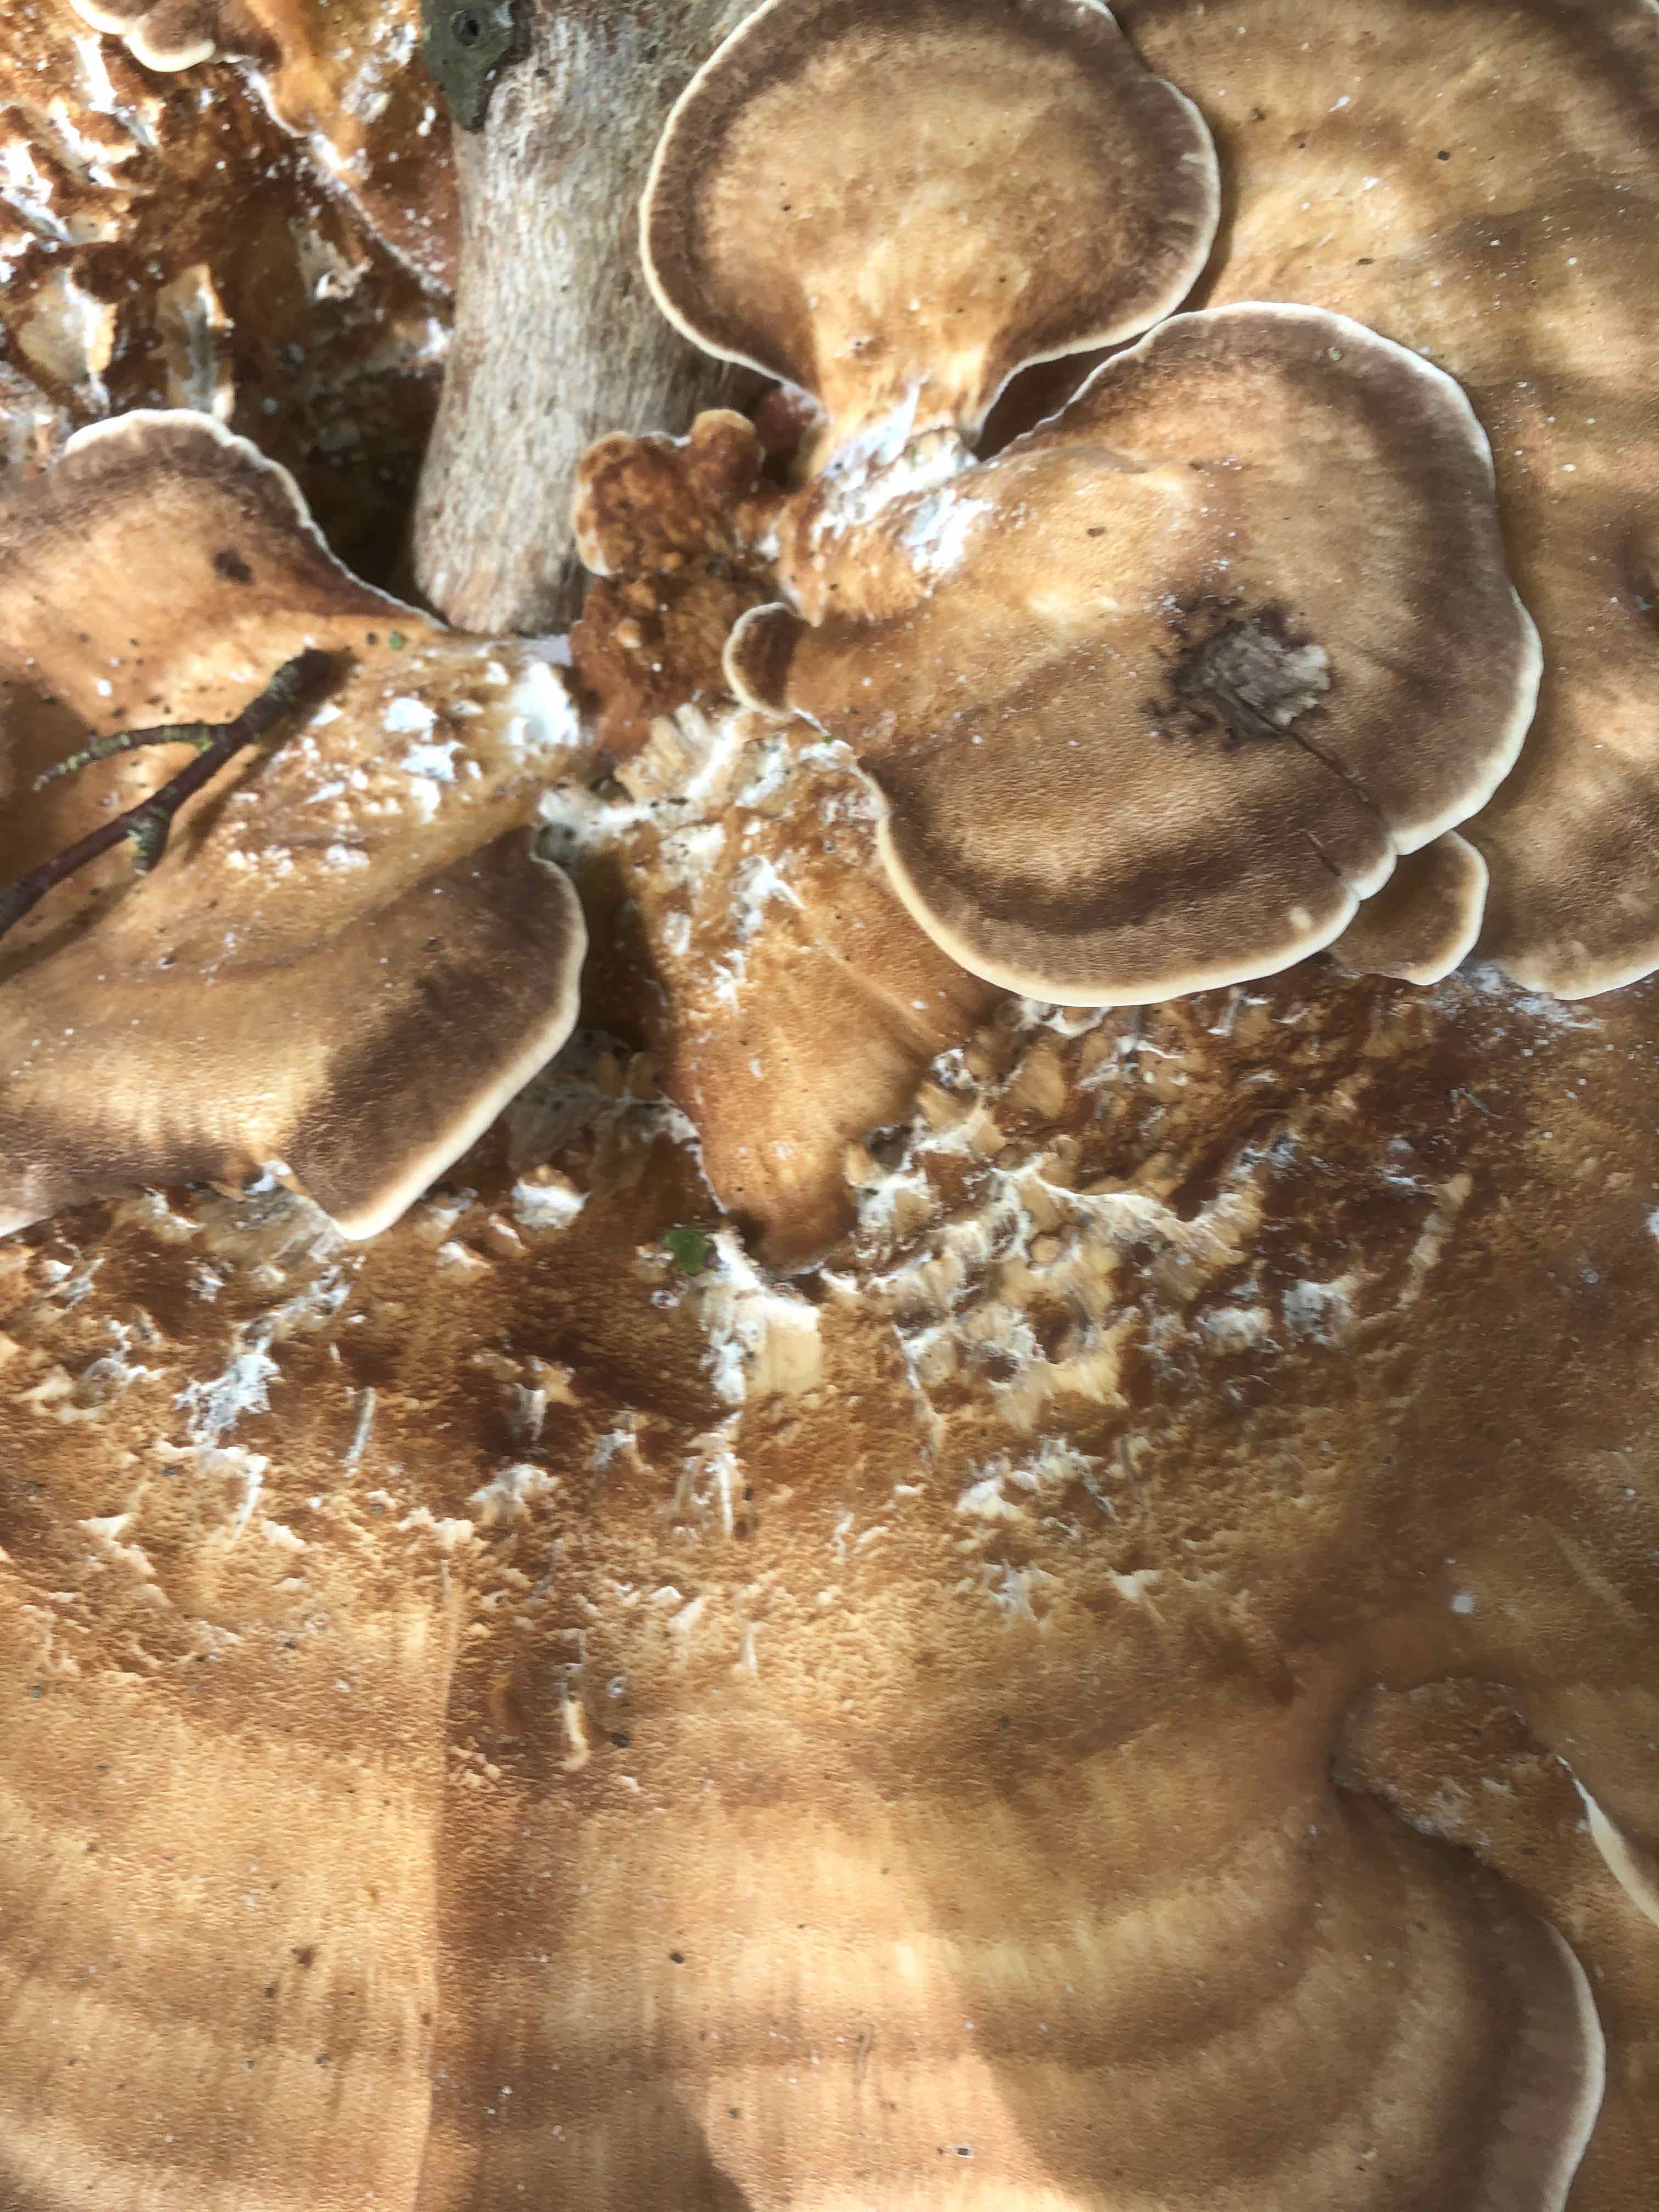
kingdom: Fungi
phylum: Basidiomycota
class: Agaricomycetes
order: Polyporales
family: Meripilaceae
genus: Meripilus
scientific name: Meripilus giganteus
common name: kæmpeporesvamp
